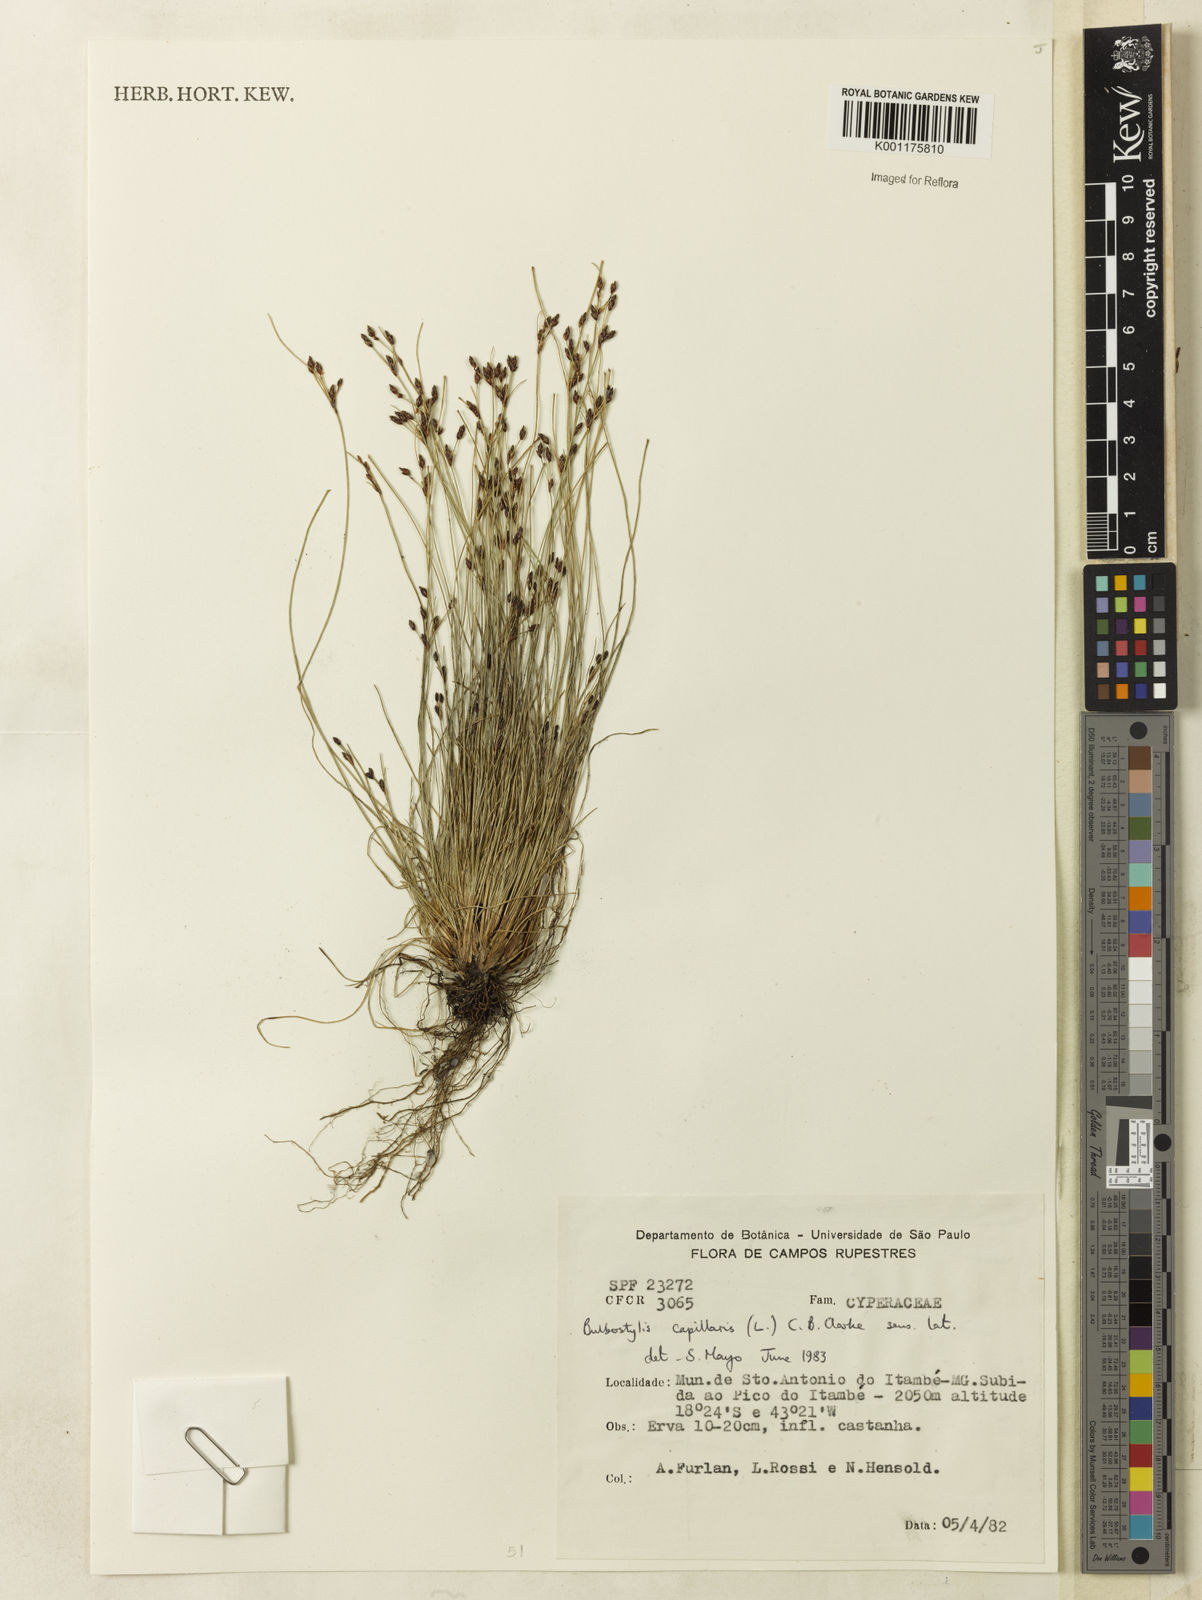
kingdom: Plantae
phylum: Tracheophyta
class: Liliopsida
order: Poales
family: Cyperaceae
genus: Bulbostylis
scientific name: Bulbostylis capillaris
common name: Densetuft hairsedge
